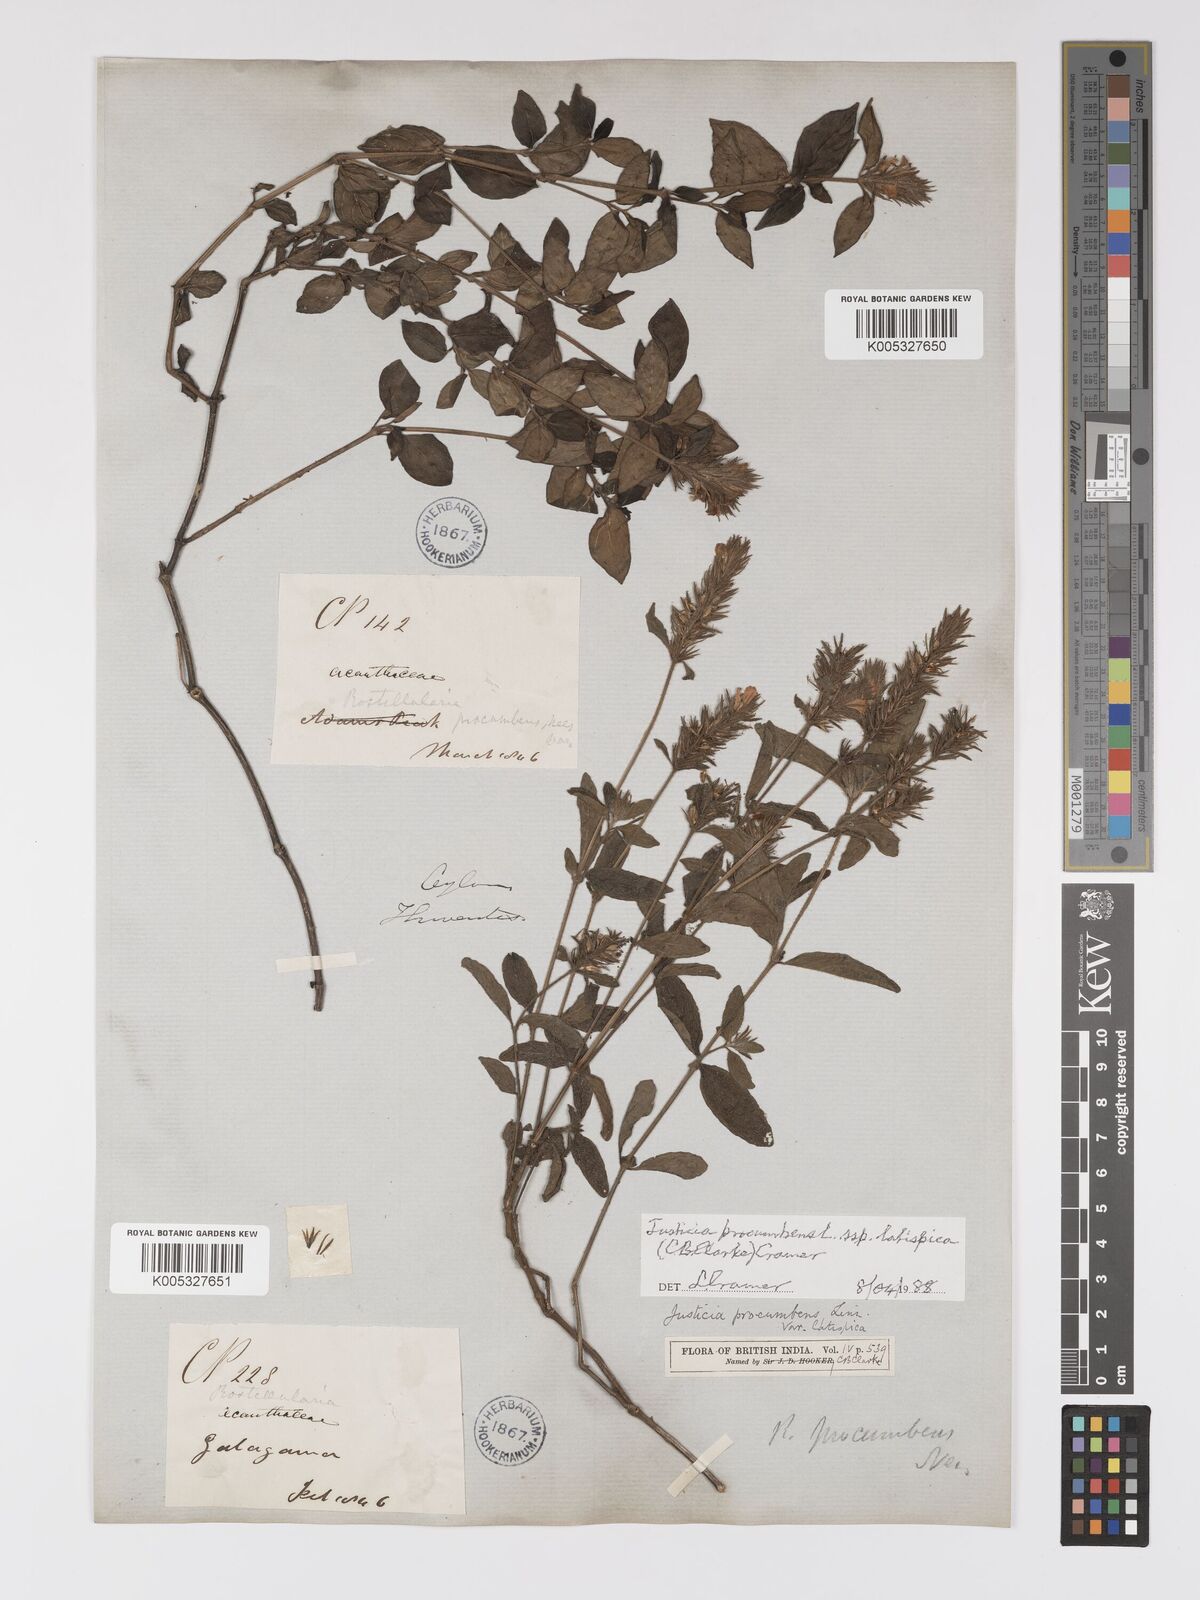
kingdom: Plantae
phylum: Tracheophyta
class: Magnoliopsida
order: Lamiales
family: Acanthaceae
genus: Rostellularia
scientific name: Rostellularia latispica
